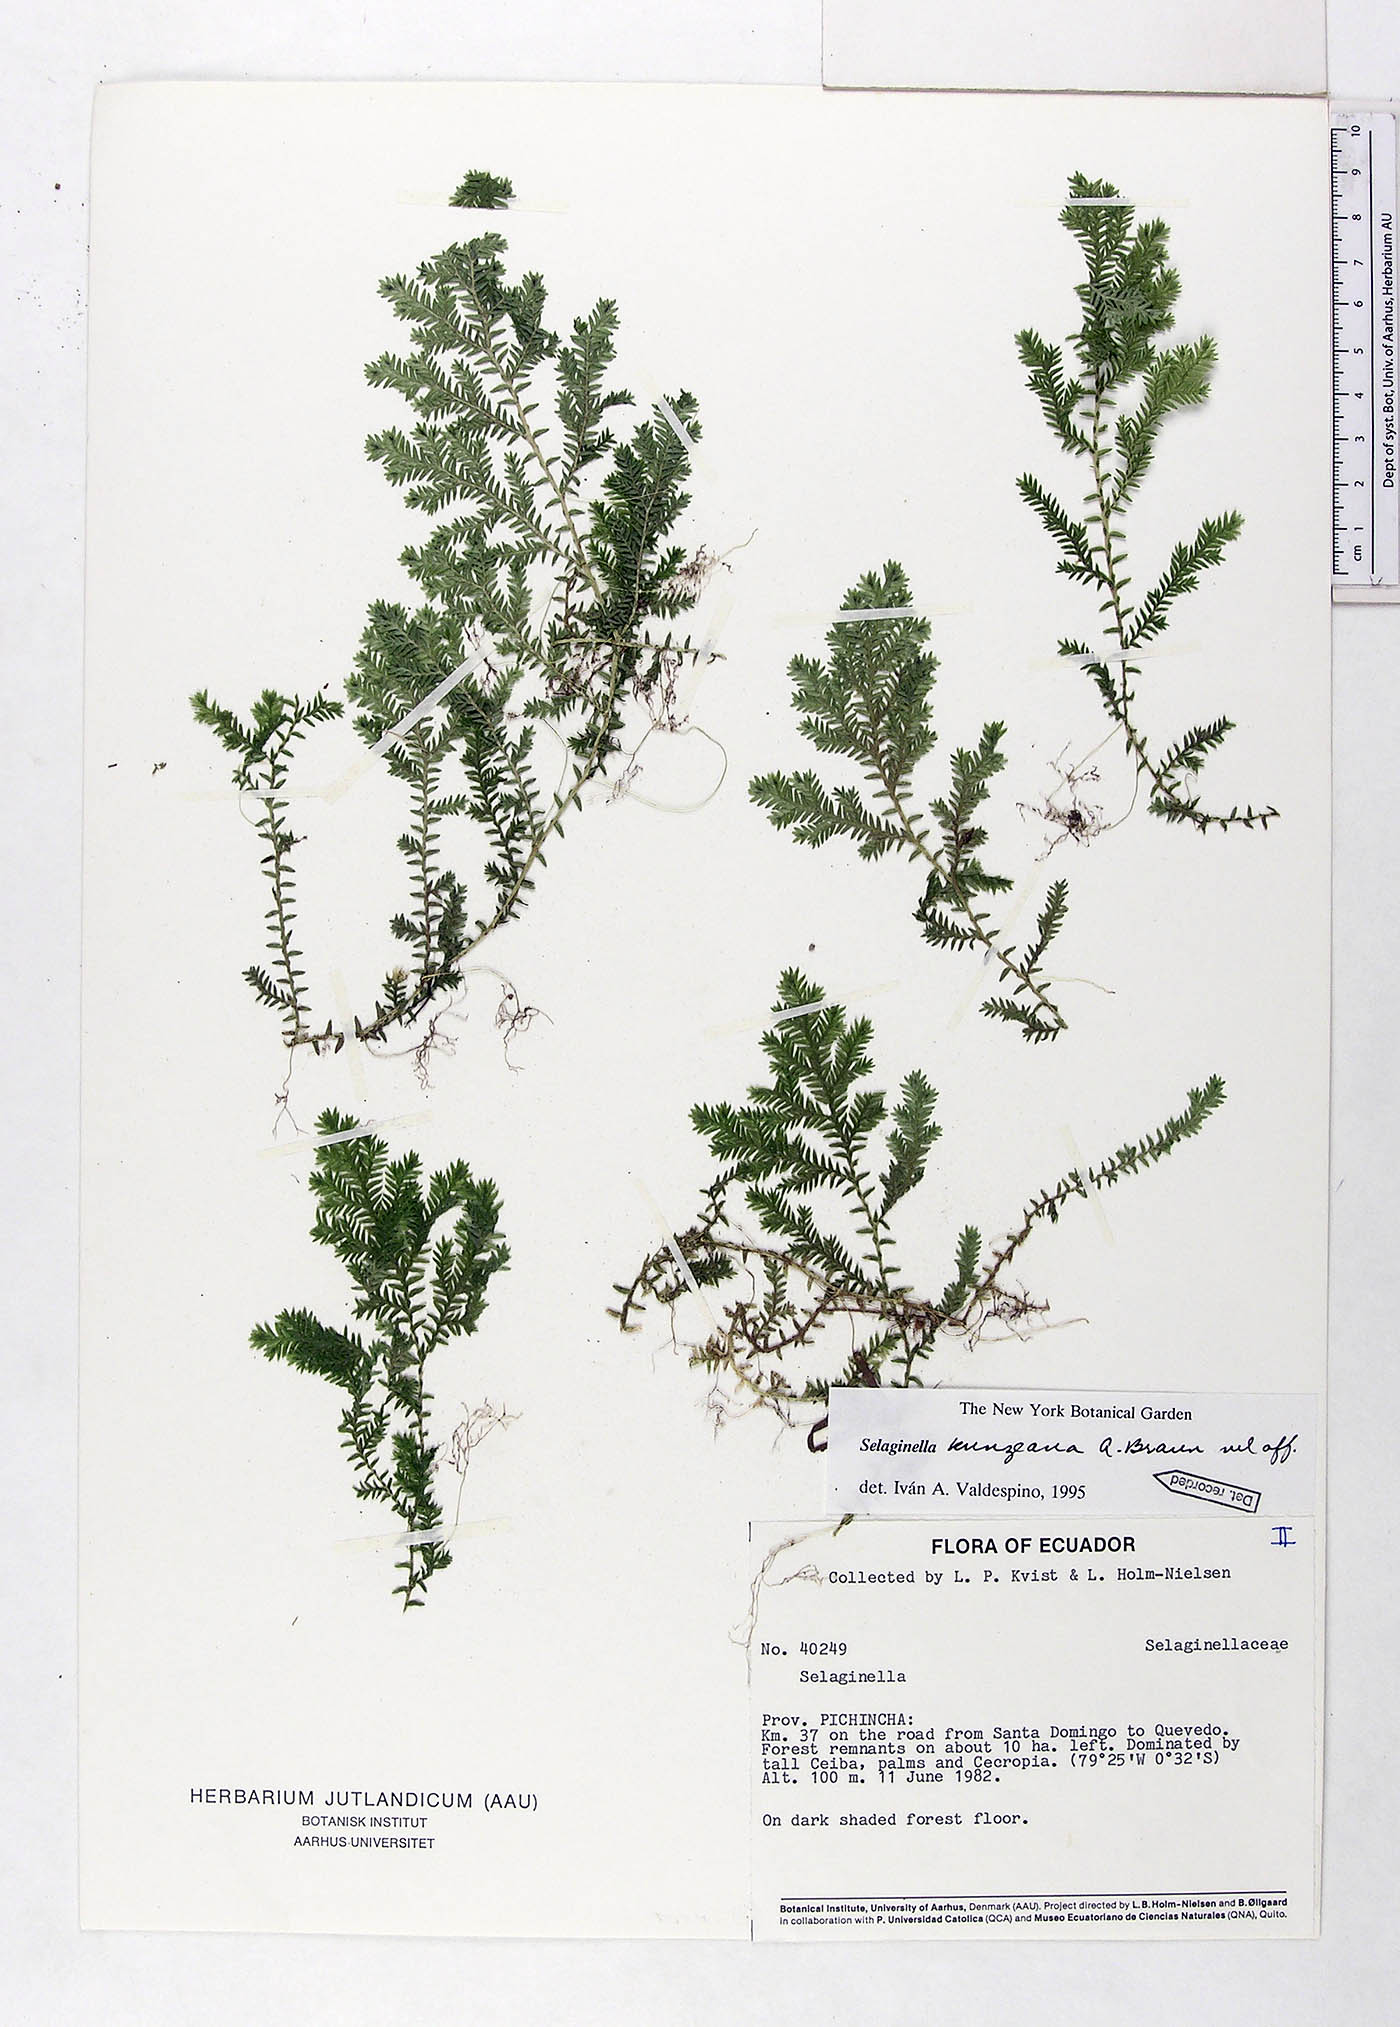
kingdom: Plantae
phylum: Tracheophyta
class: Lycopodiopsida
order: Selaginellales
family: Selaginellaceae
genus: Selaginella
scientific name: Selaginella kunzeana
